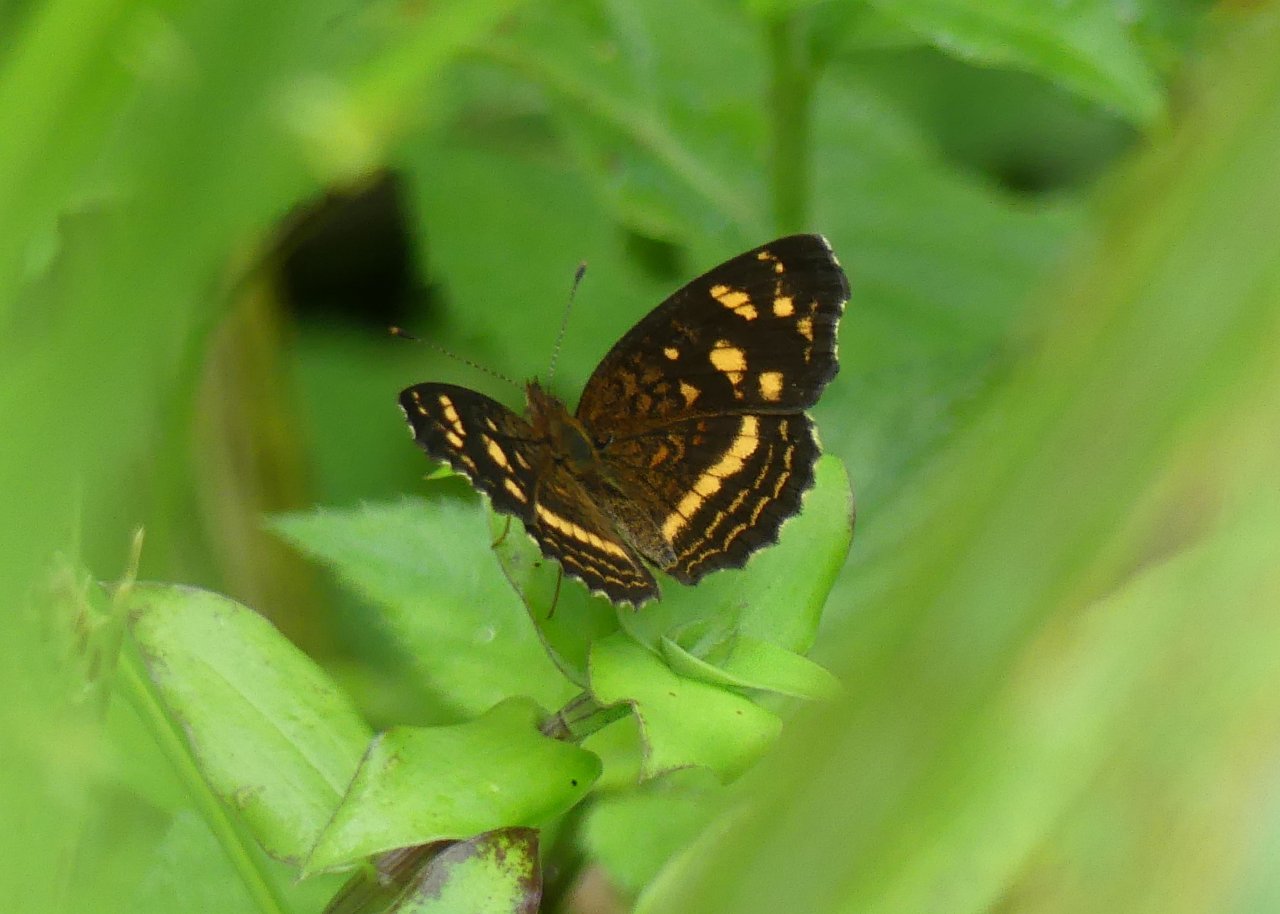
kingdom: Animalia
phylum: Arthropoda
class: Insecta
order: Lepidoptera
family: Nymphalidae
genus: Anthanassa
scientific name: Anthanassa drusilla
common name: Orange-patched Crescent
